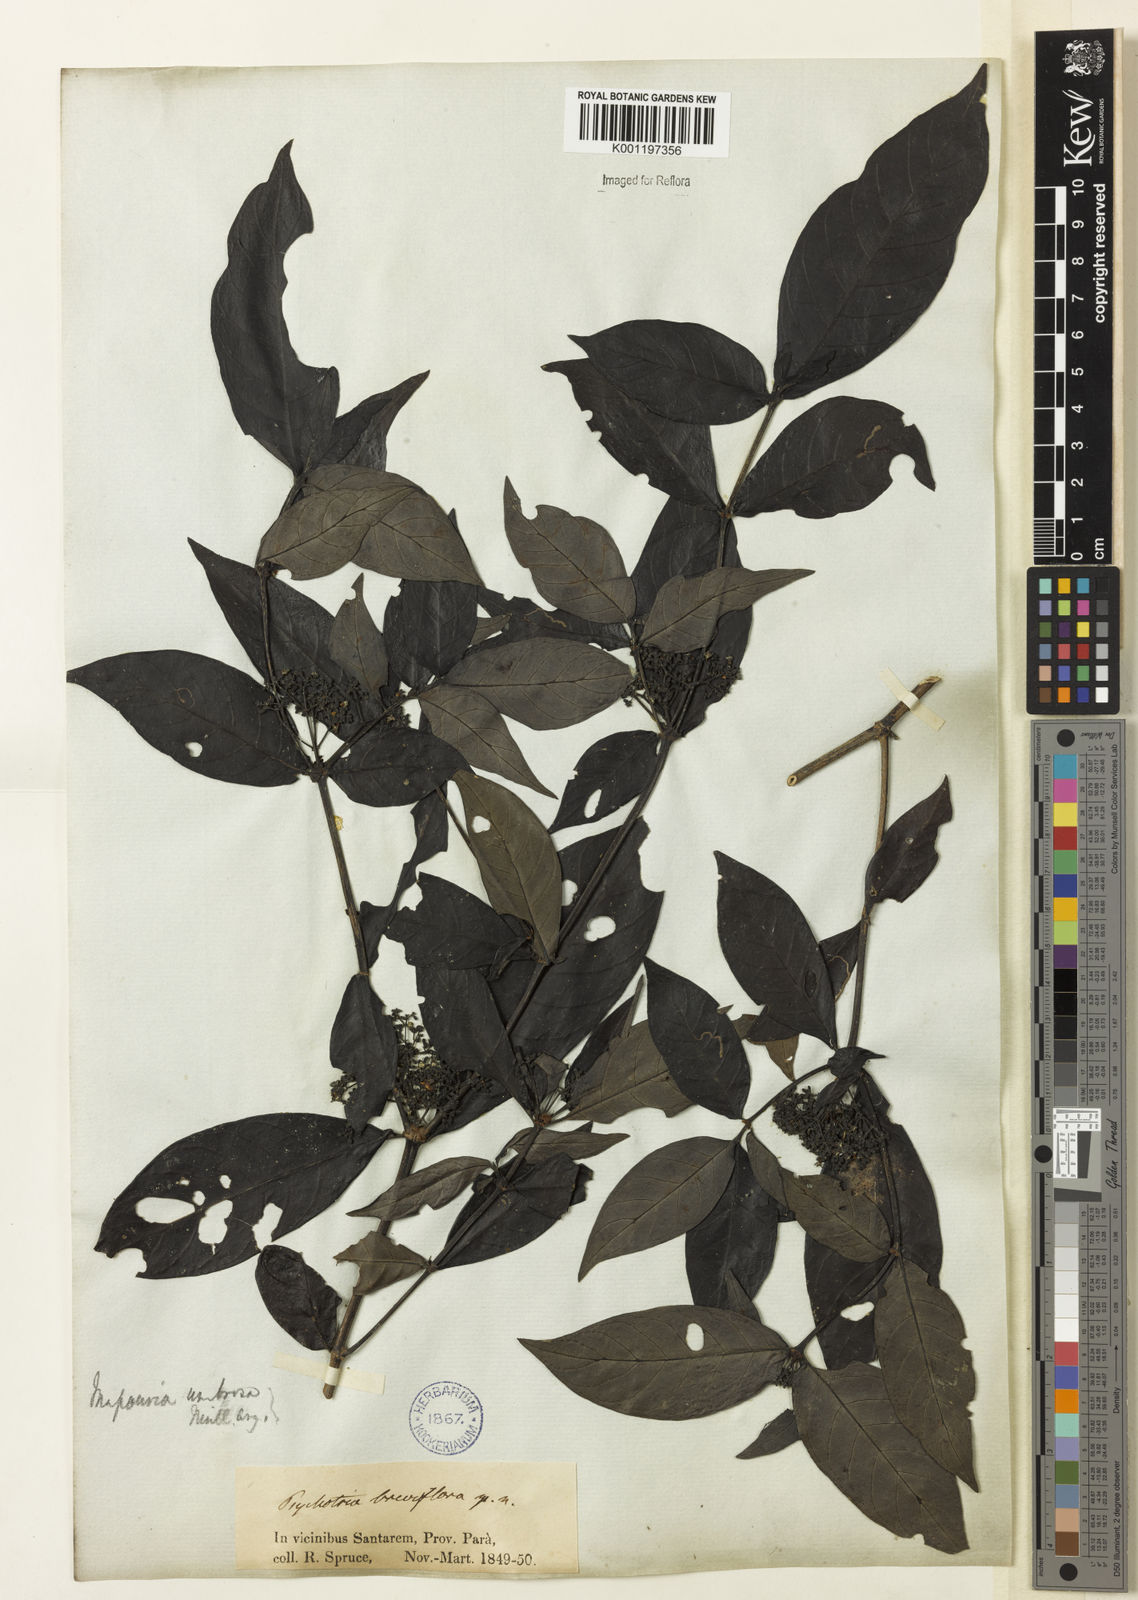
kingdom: Plantae
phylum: Tracheophyta
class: Magnoliopsida
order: Gentianales
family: Rubiaceae
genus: Psychotria
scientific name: Psychotria borjensis
